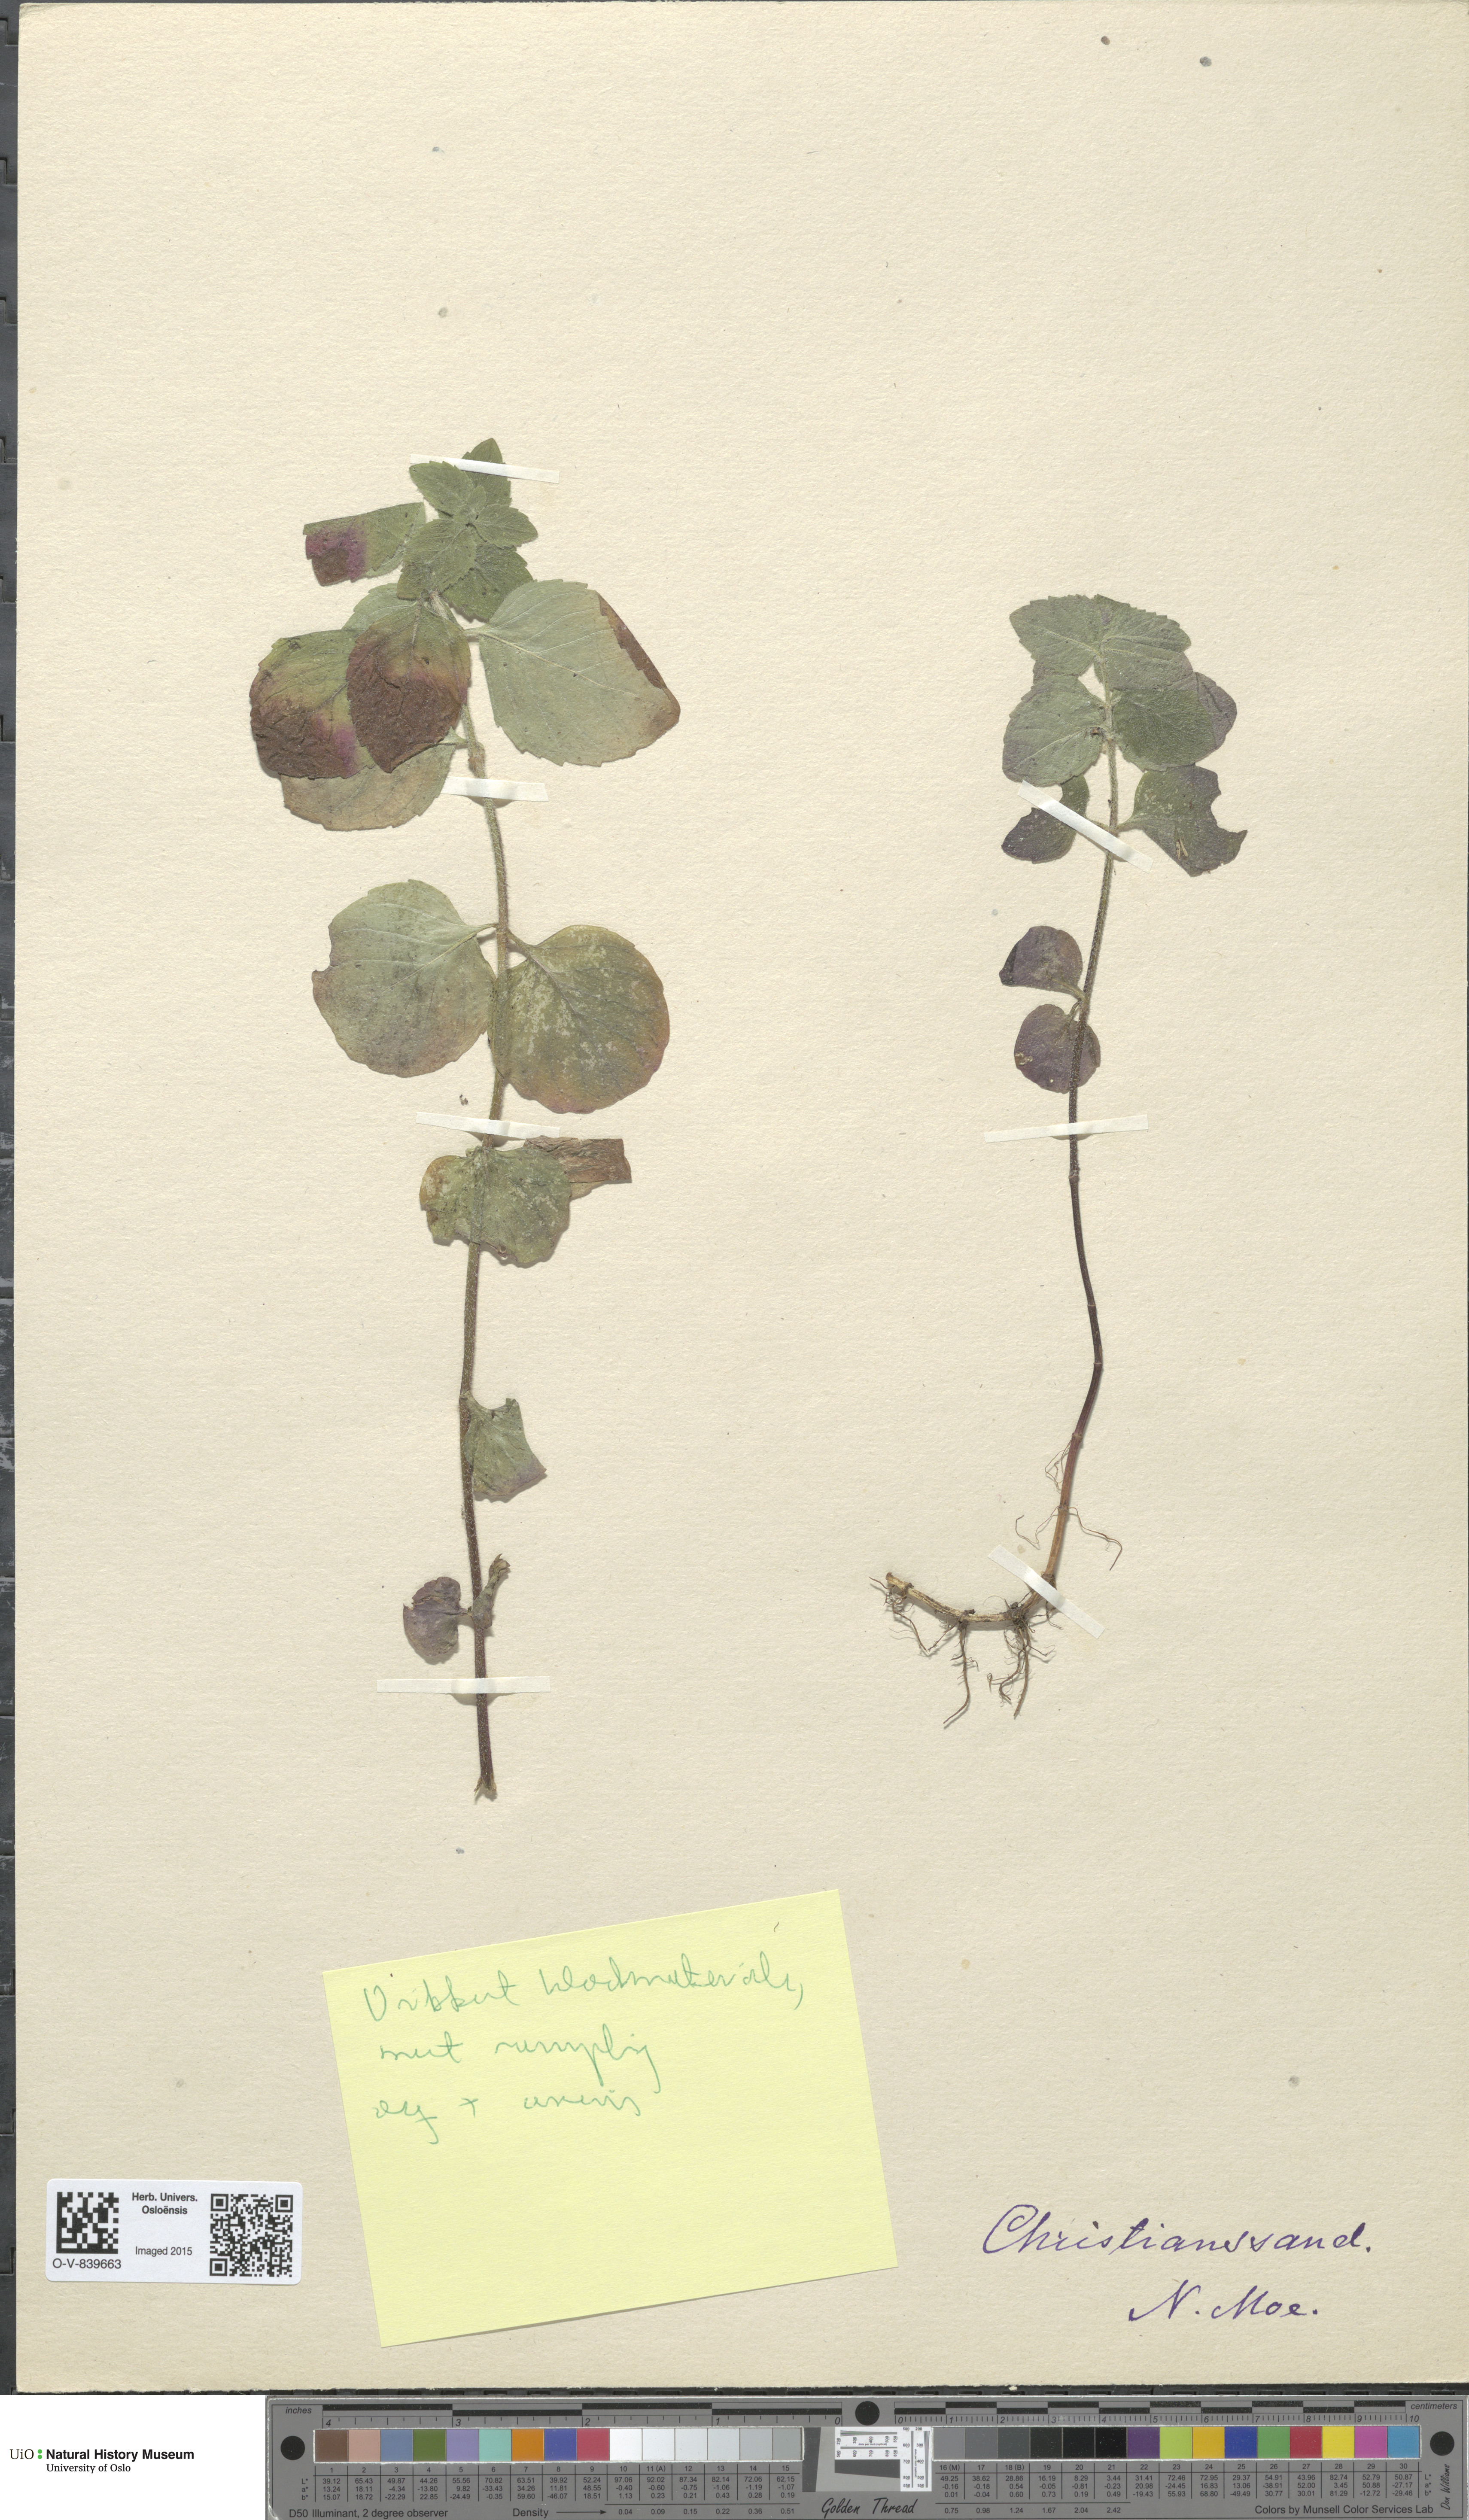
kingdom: Plantae
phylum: Tracheophyta
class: Magnoliopsida
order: Lamiales
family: Lamiaceae
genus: Mentha
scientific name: Mentha arvensis
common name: Corn mint
